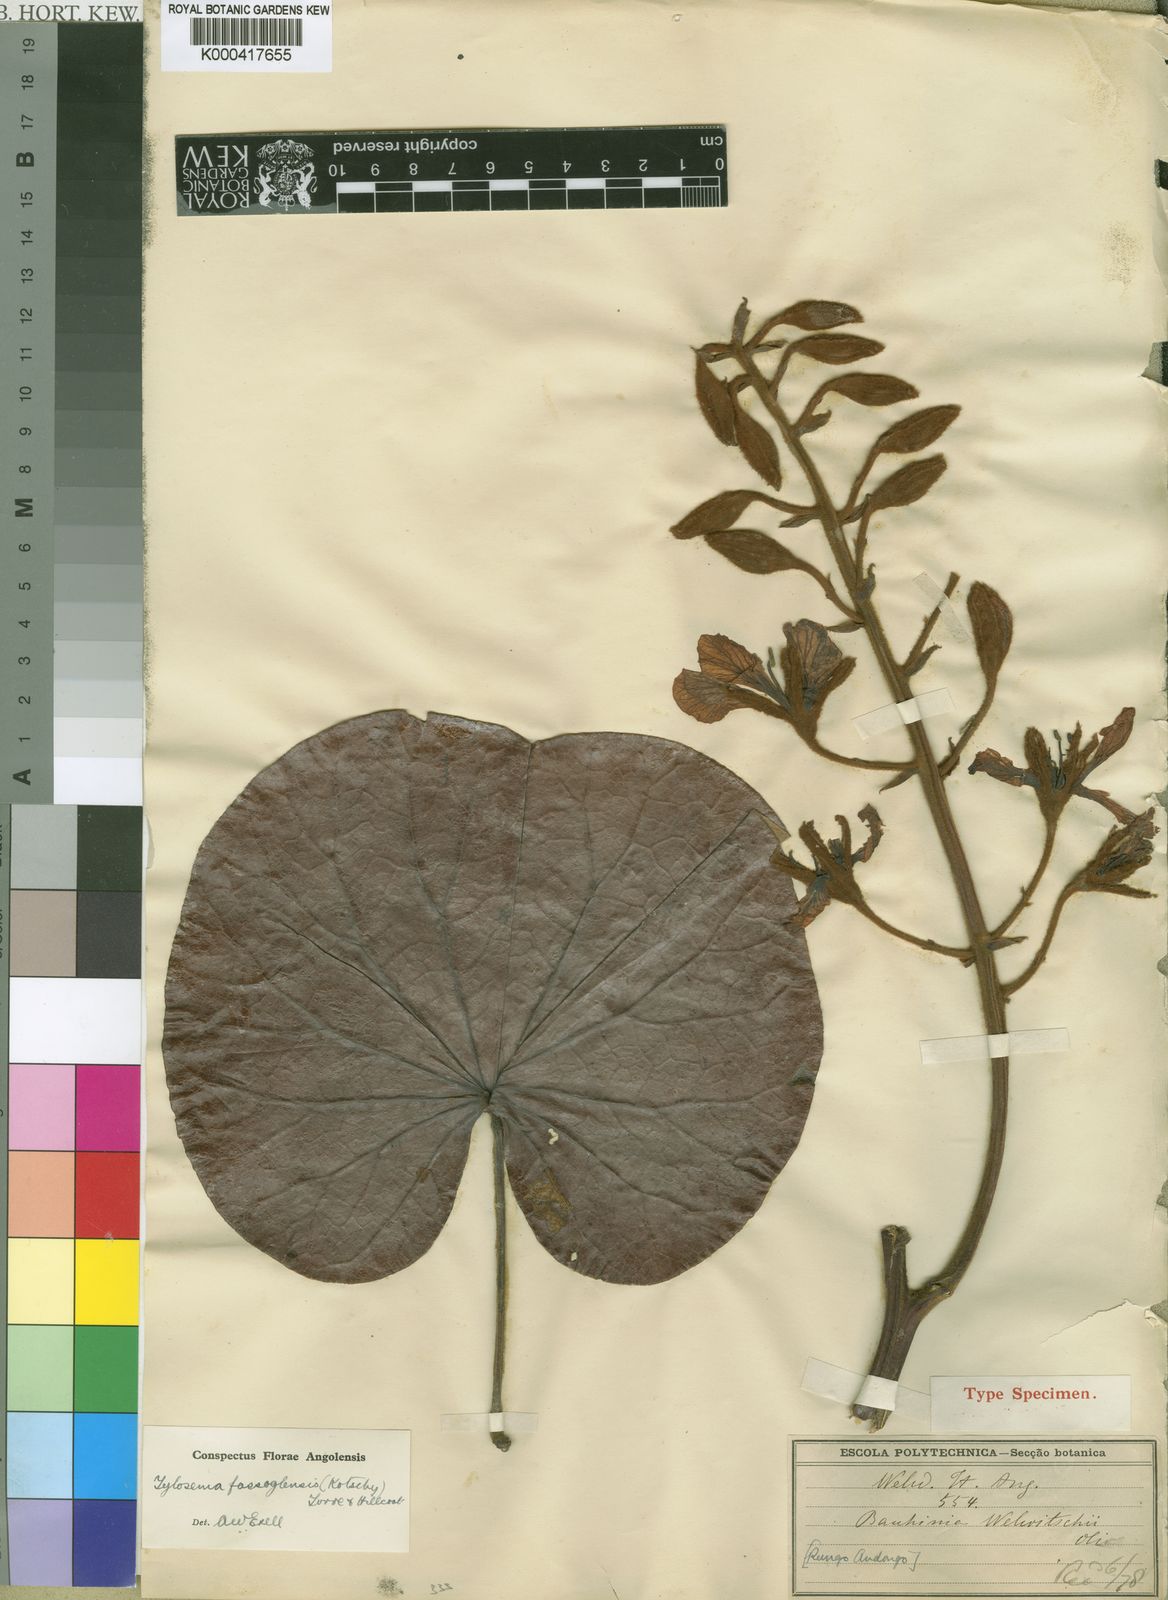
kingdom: Plantae
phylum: Tracheophyta
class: Magnoliopsida
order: Fabales
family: Fabaceae
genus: Tylosema
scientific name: Tylosema fassoglense
